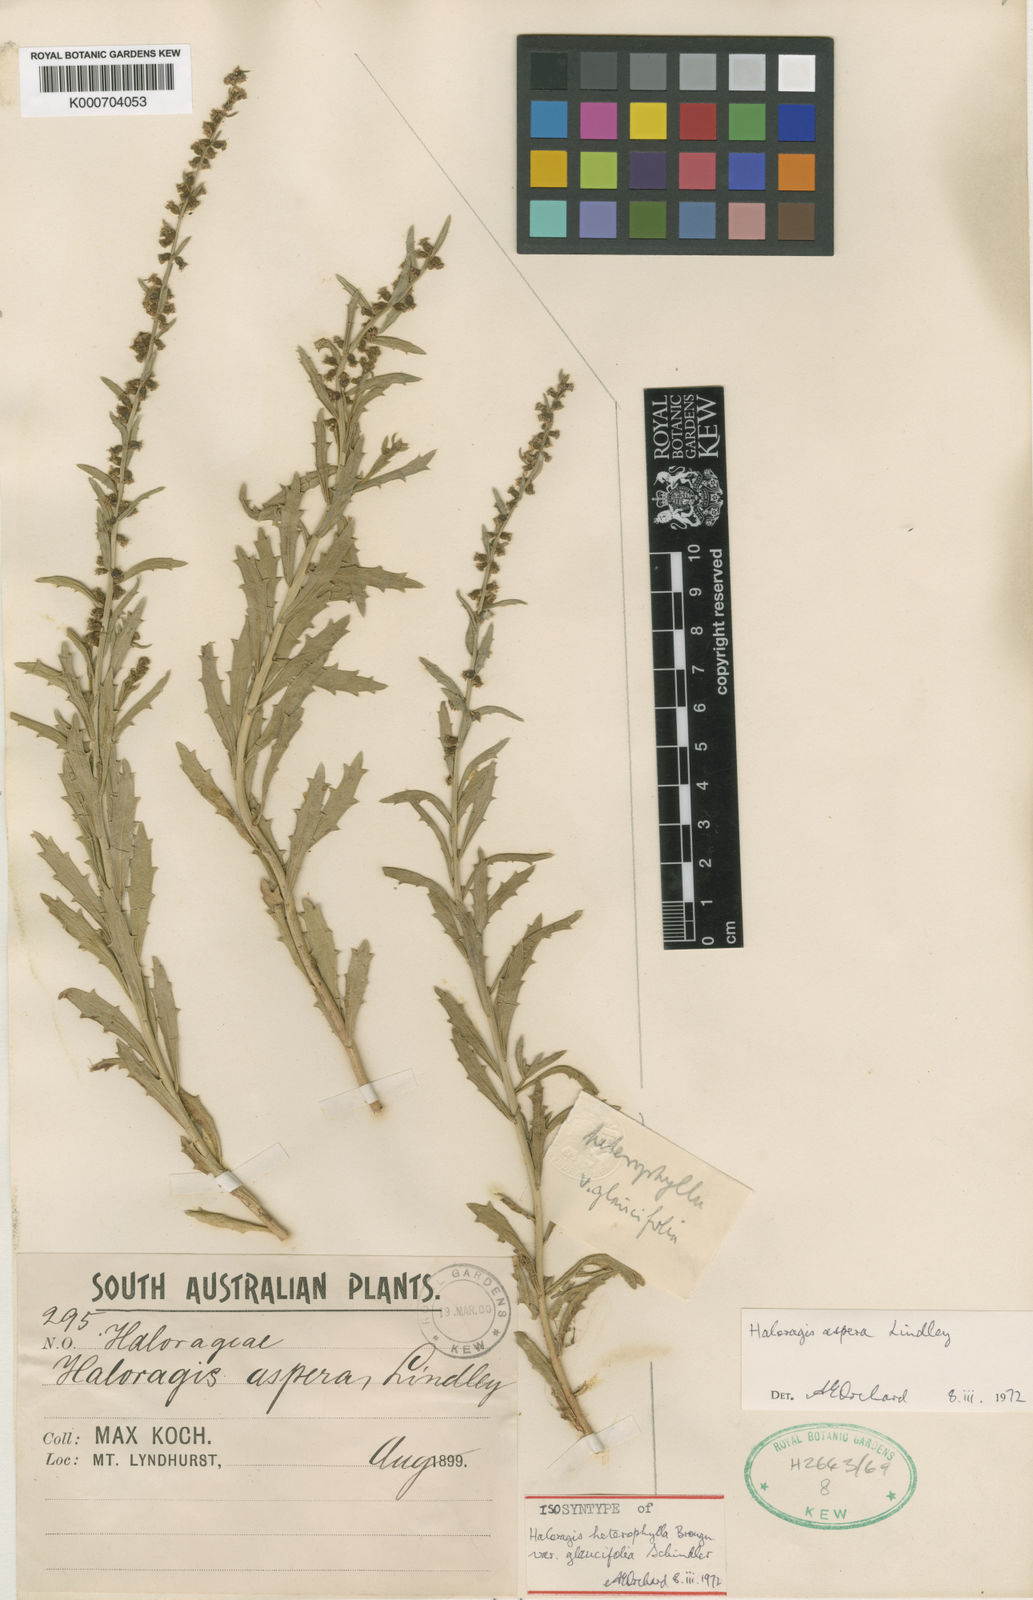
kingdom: Plantae
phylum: Tracheophyta
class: Magnoliopsida
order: Saxifragales
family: Haloragaceae
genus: Haloragis
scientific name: Haloragis aspera
